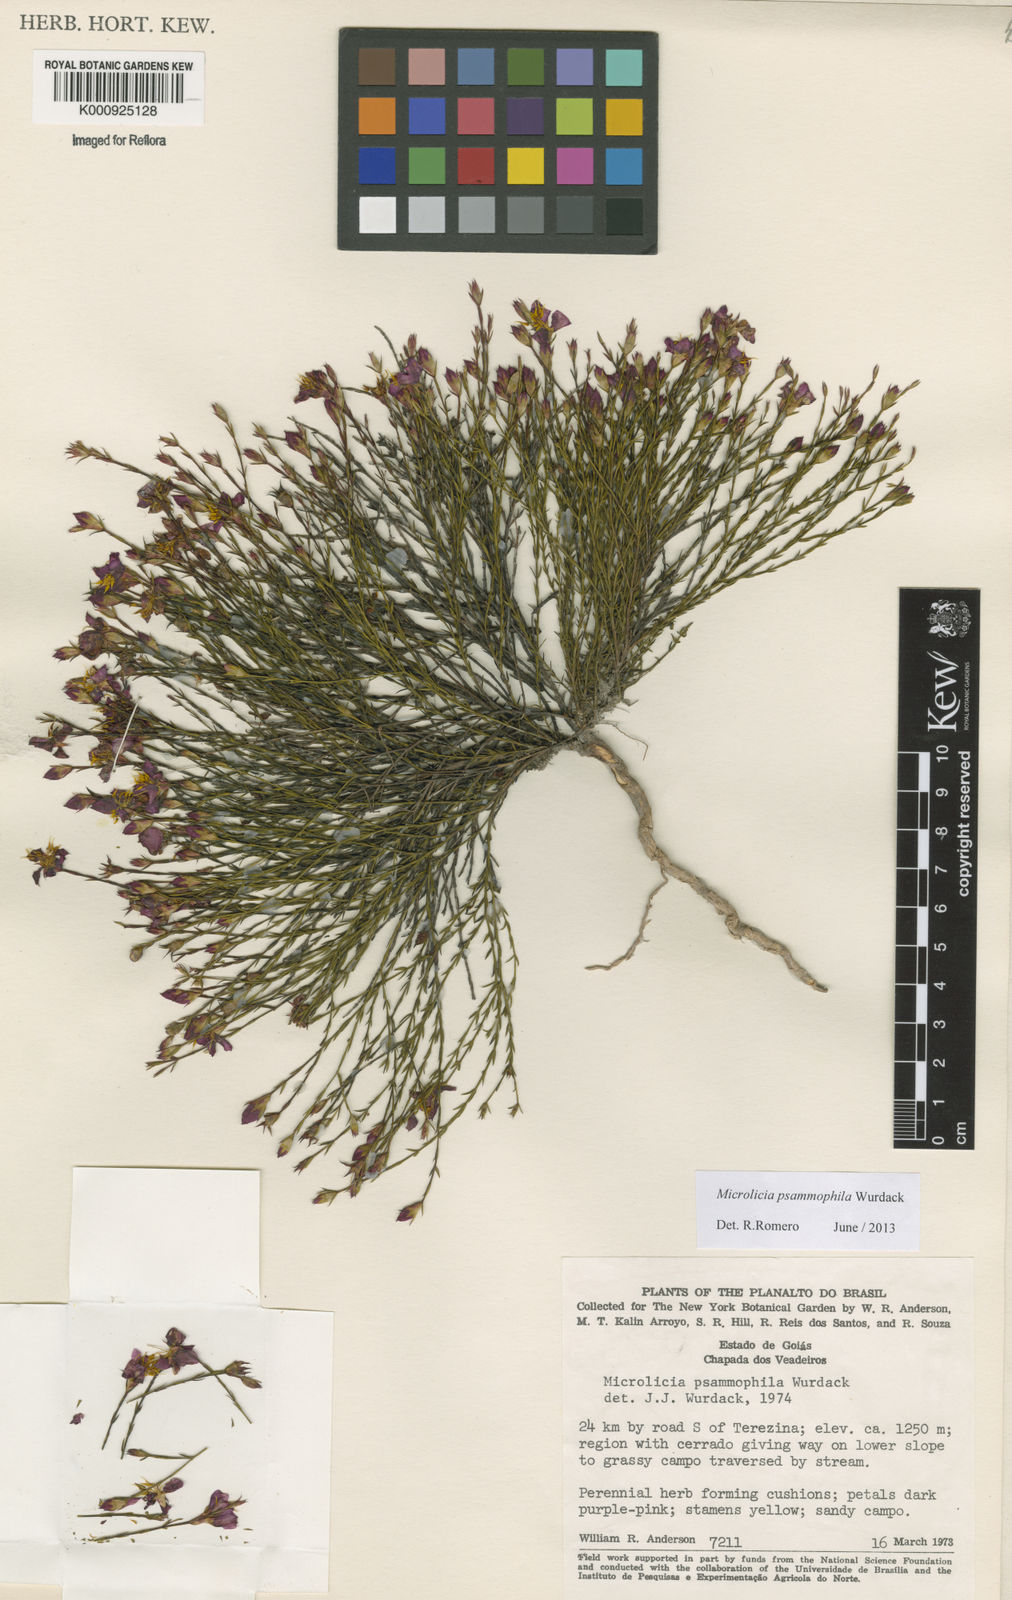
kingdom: Plantae
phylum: Tracheophyta
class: Magnoliopsida
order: Myrtales
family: Melastomataceae
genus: Microlicia
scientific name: Microlicia psammophila
